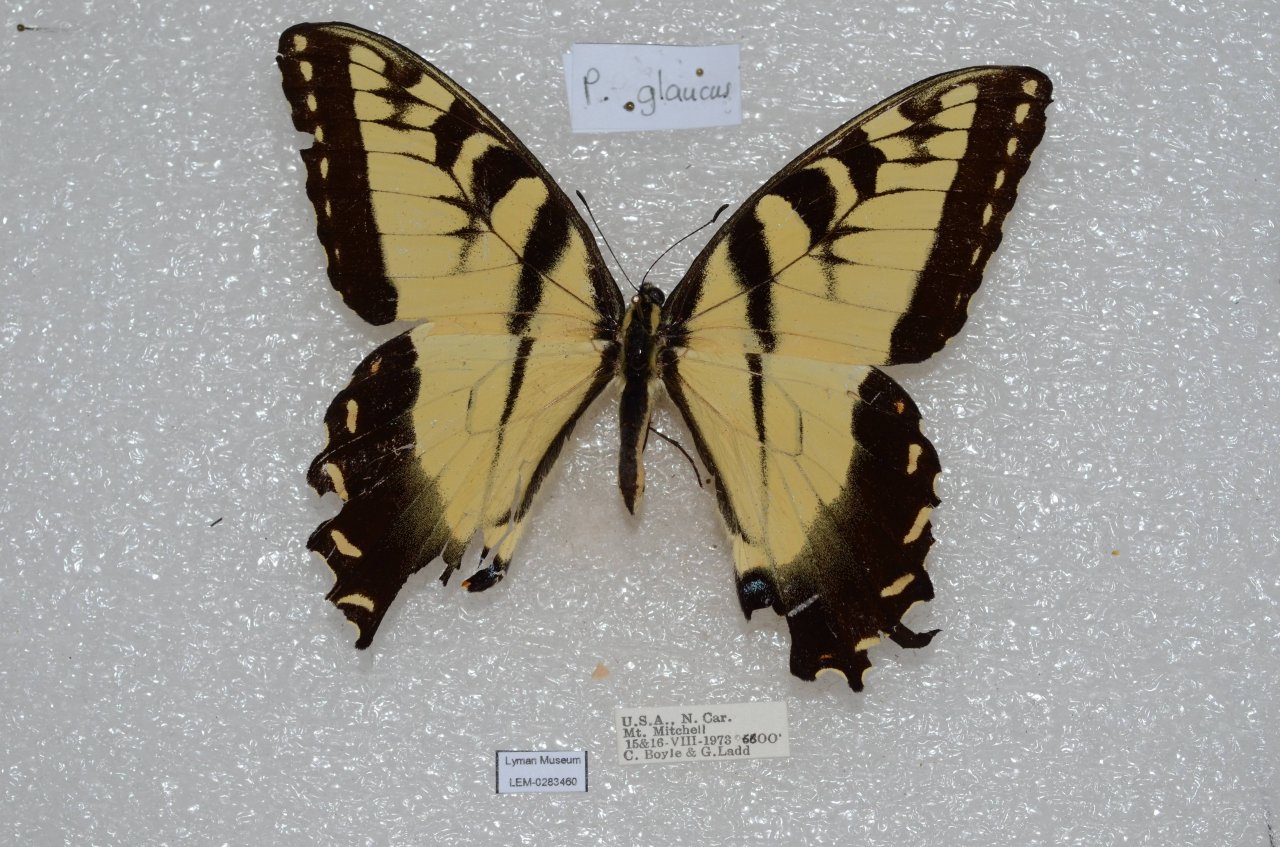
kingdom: Animalia
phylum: Arthropoda
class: Insecta
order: Lepidoptera
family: Papilionidae
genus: Pterourus
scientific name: Pterourus glaucus
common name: Eastern Tiger Swallowtail
